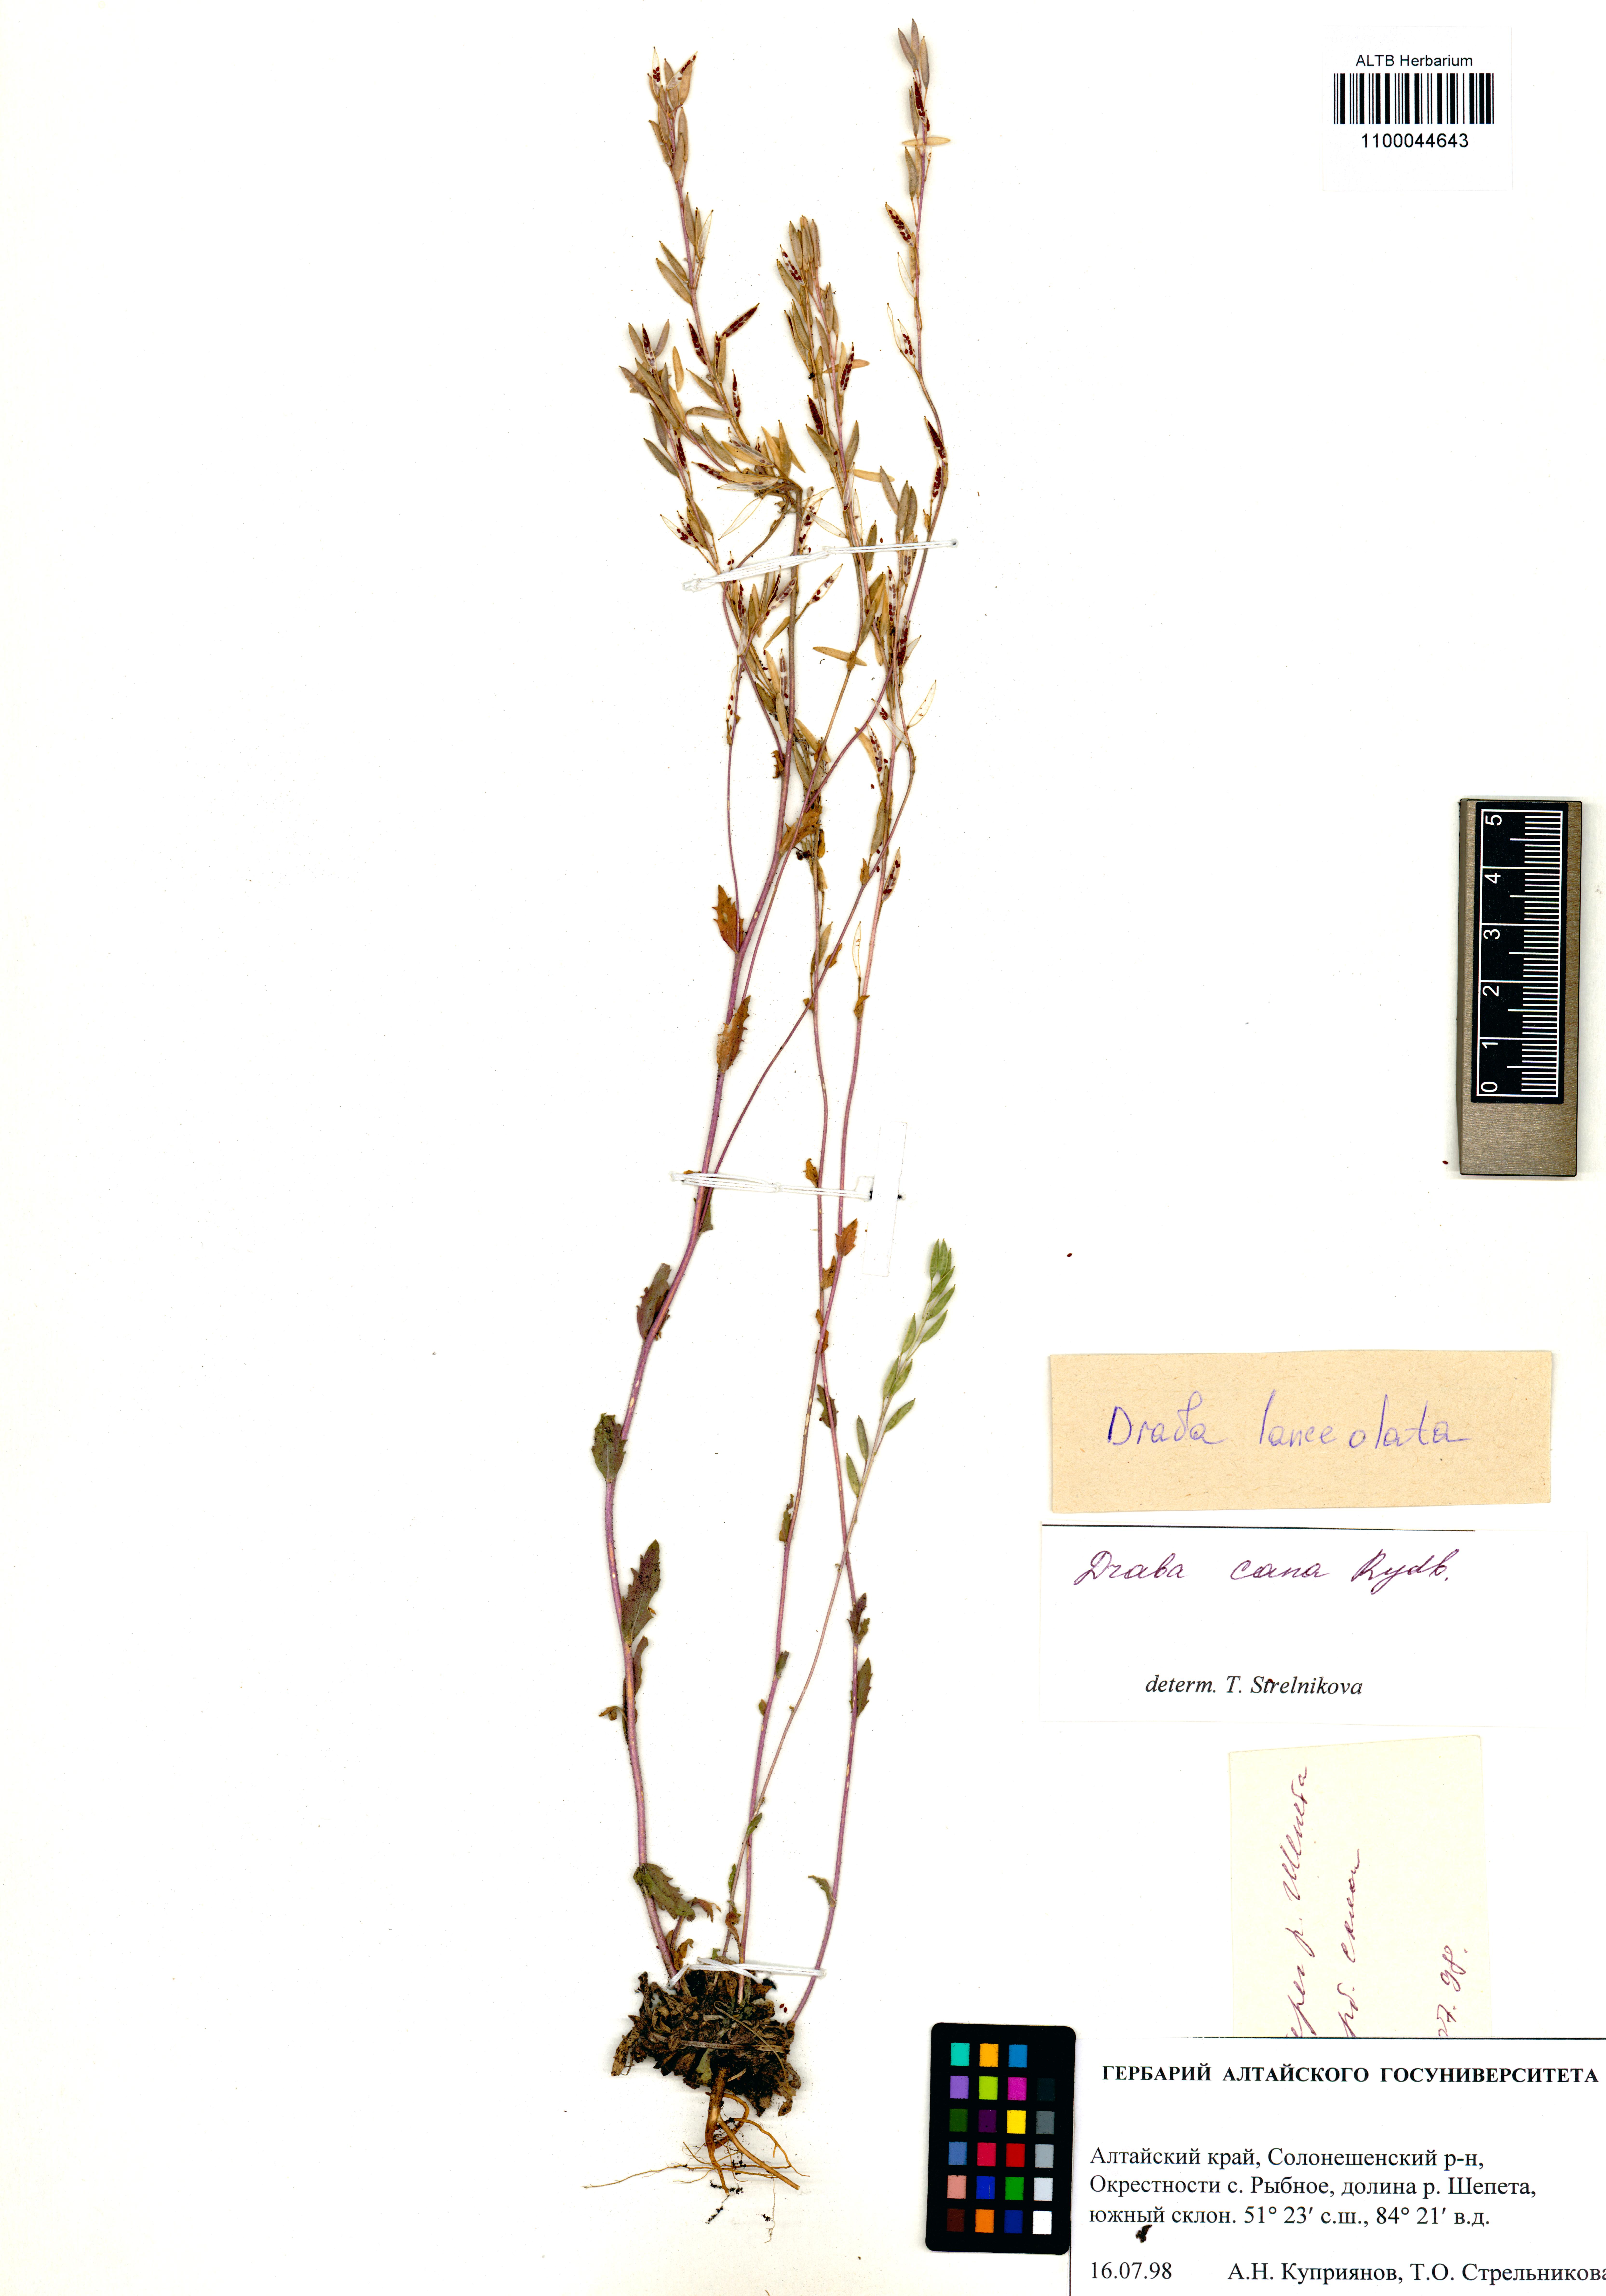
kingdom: Plantae
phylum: Tracheophyta
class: Magnoliopsida
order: Brassicales
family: Brassicaceae
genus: Draba
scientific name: Draba lanceolata
